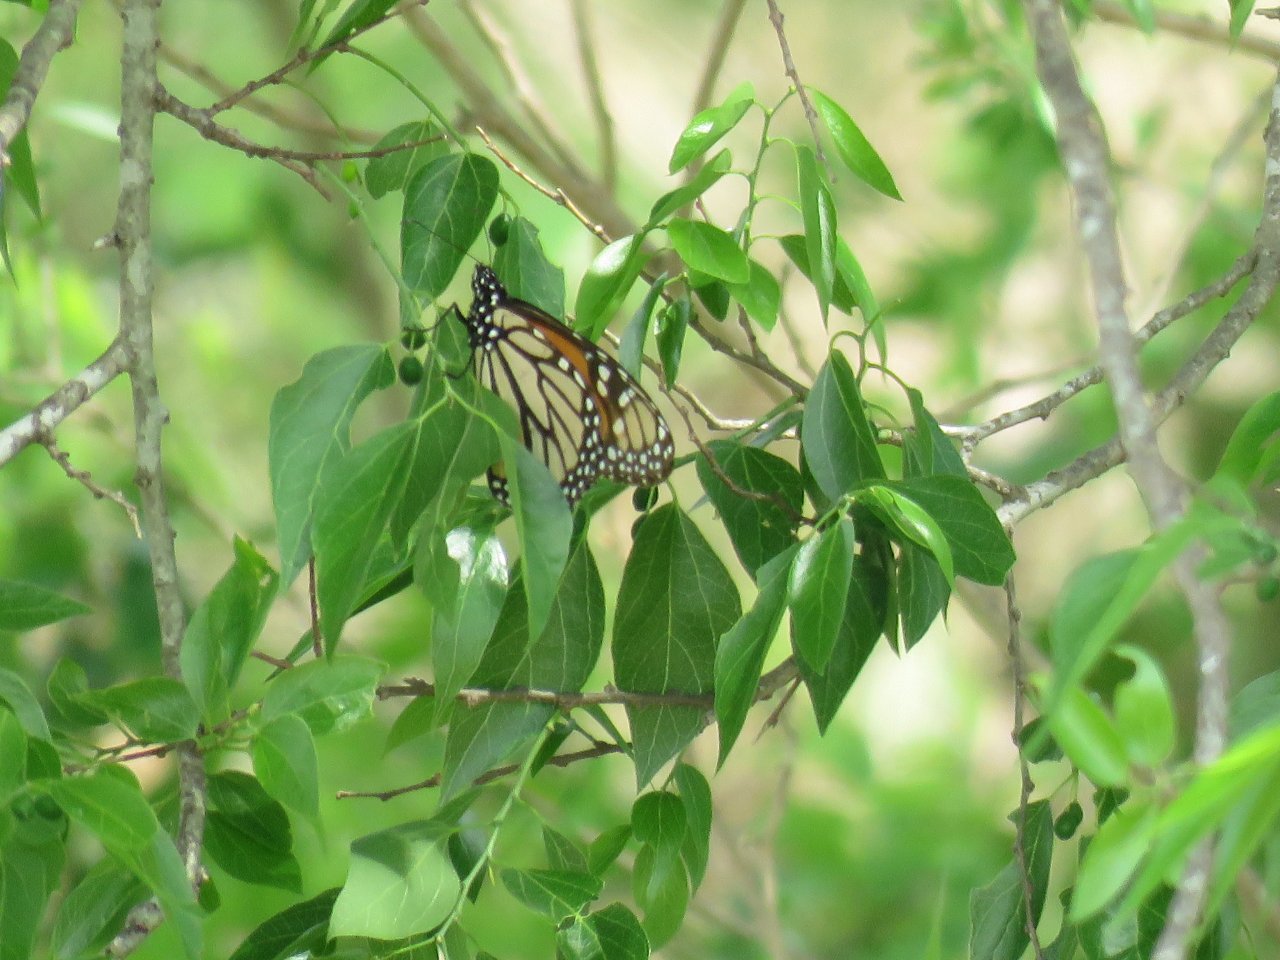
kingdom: Animalia
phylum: Arthropoda
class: Insecta
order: Lepidoptera
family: Nymphalidae
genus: Danaus
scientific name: Danaus plexippus
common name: Monarch
